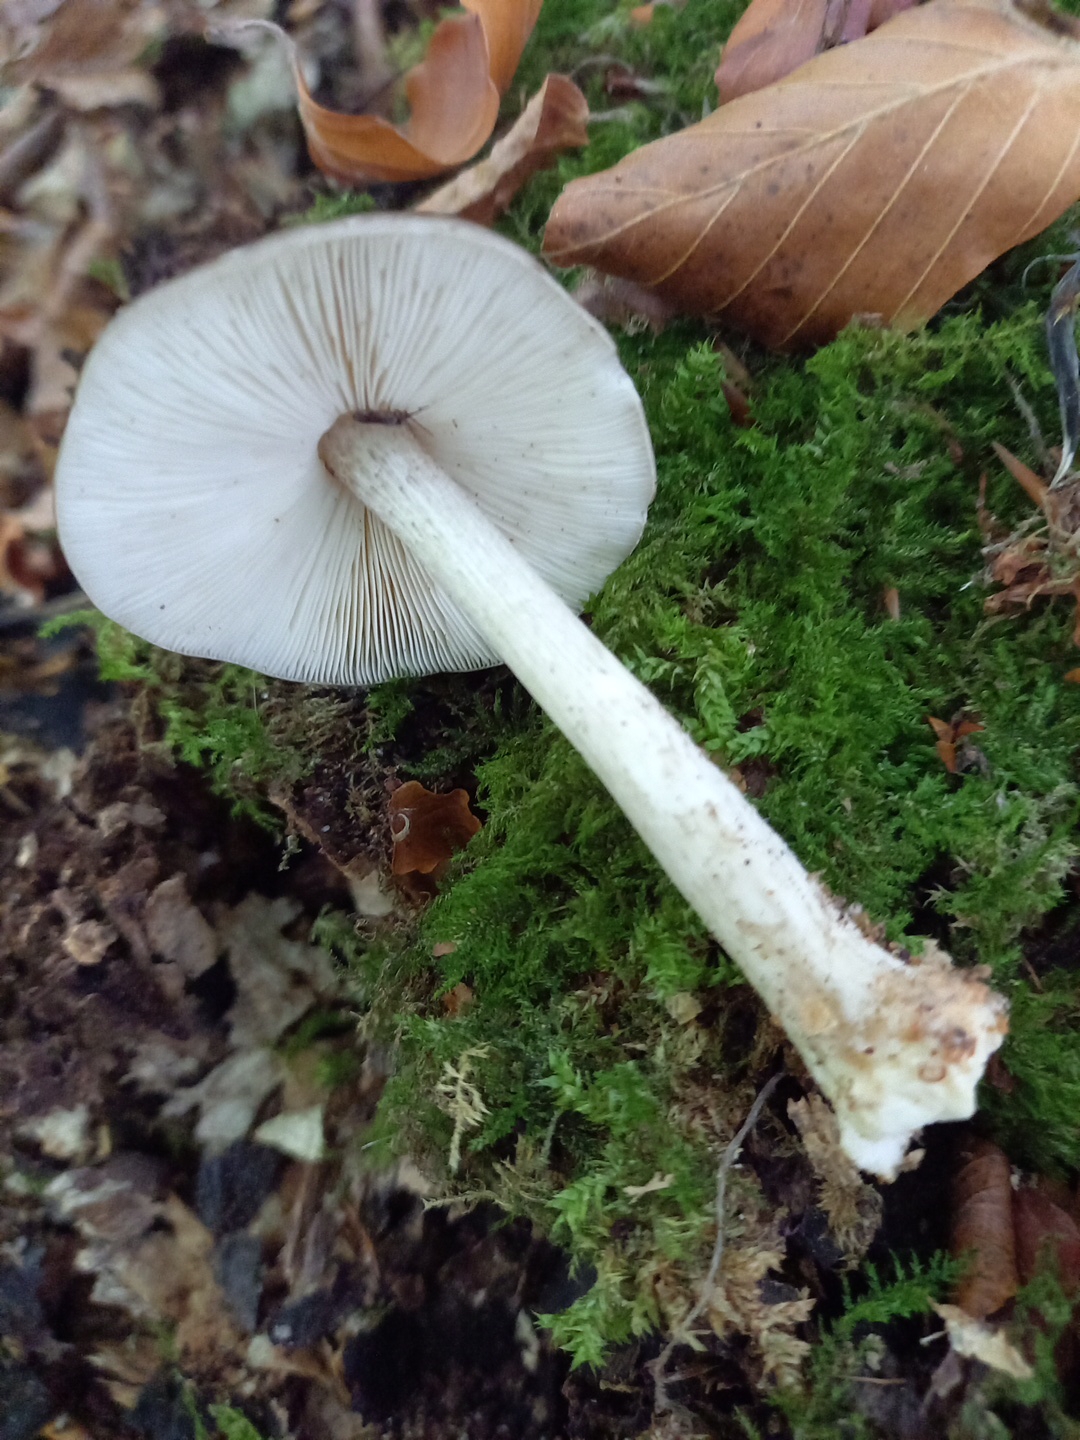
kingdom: Fungi
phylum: Basidiomycota
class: Agaricomycetes
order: Agaricales
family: Pluteaceae
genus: Pluteus
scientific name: Pluteus
